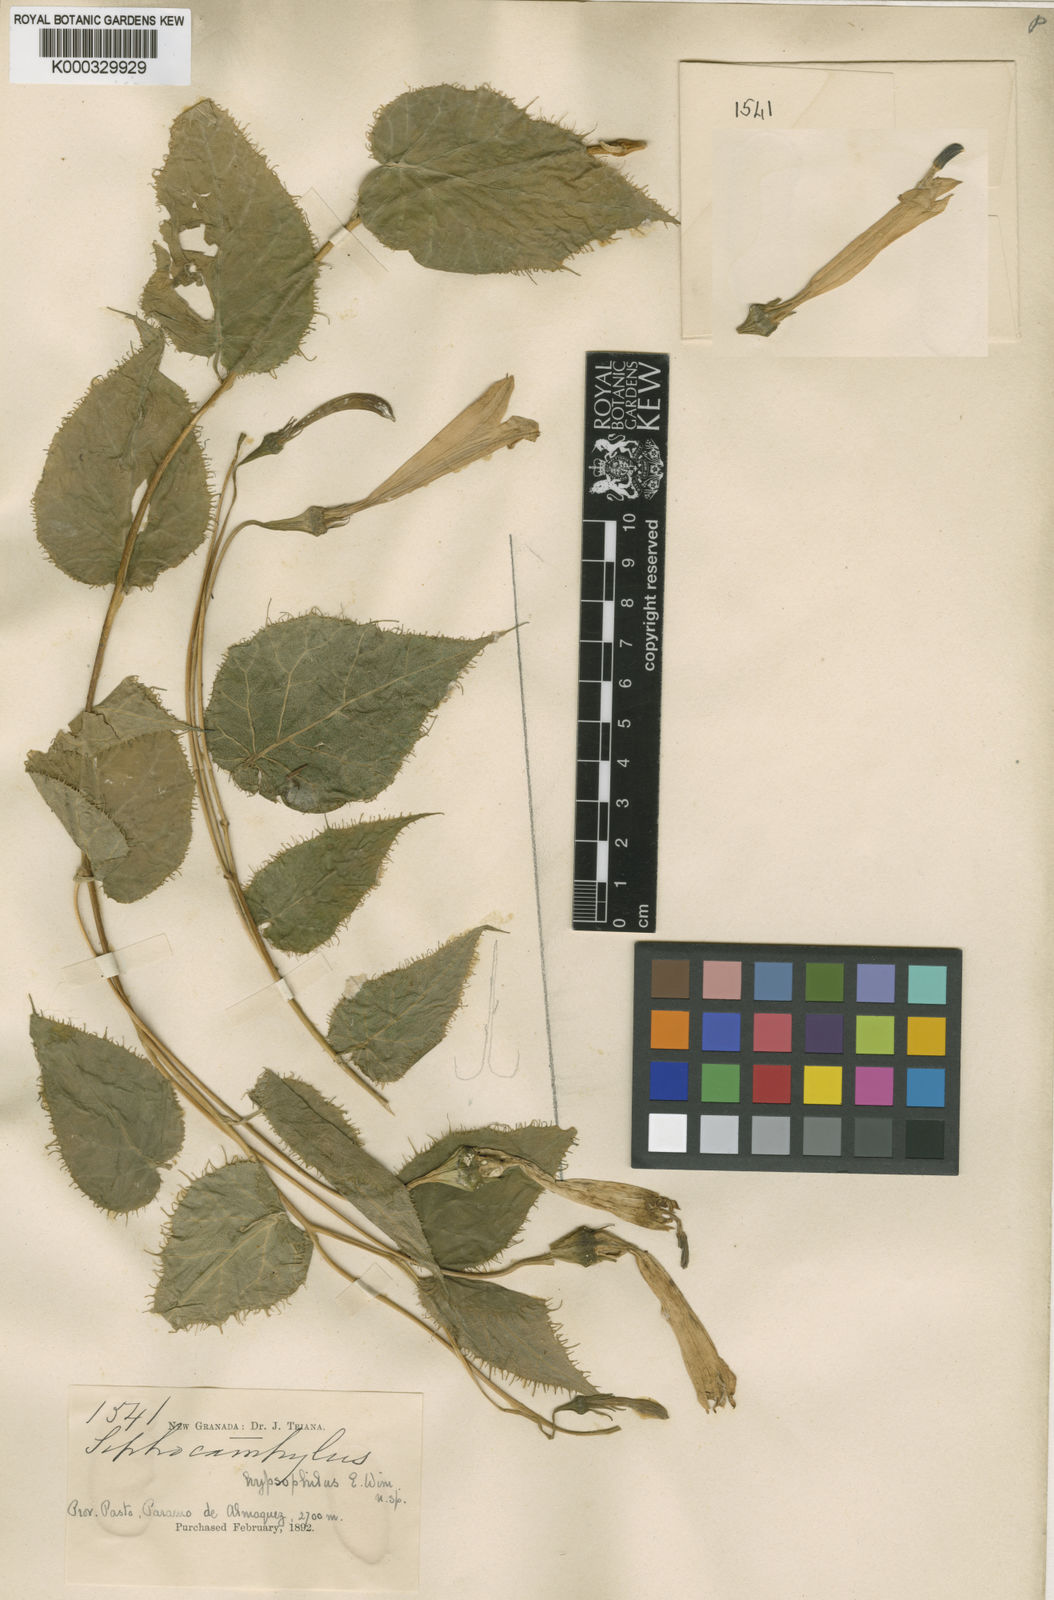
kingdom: Plantae
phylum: Tracheophyta
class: Magnoliopsida
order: Asterales
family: Campanulaceae
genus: Siphocampylus
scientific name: Siphocampylus hypsophilus
